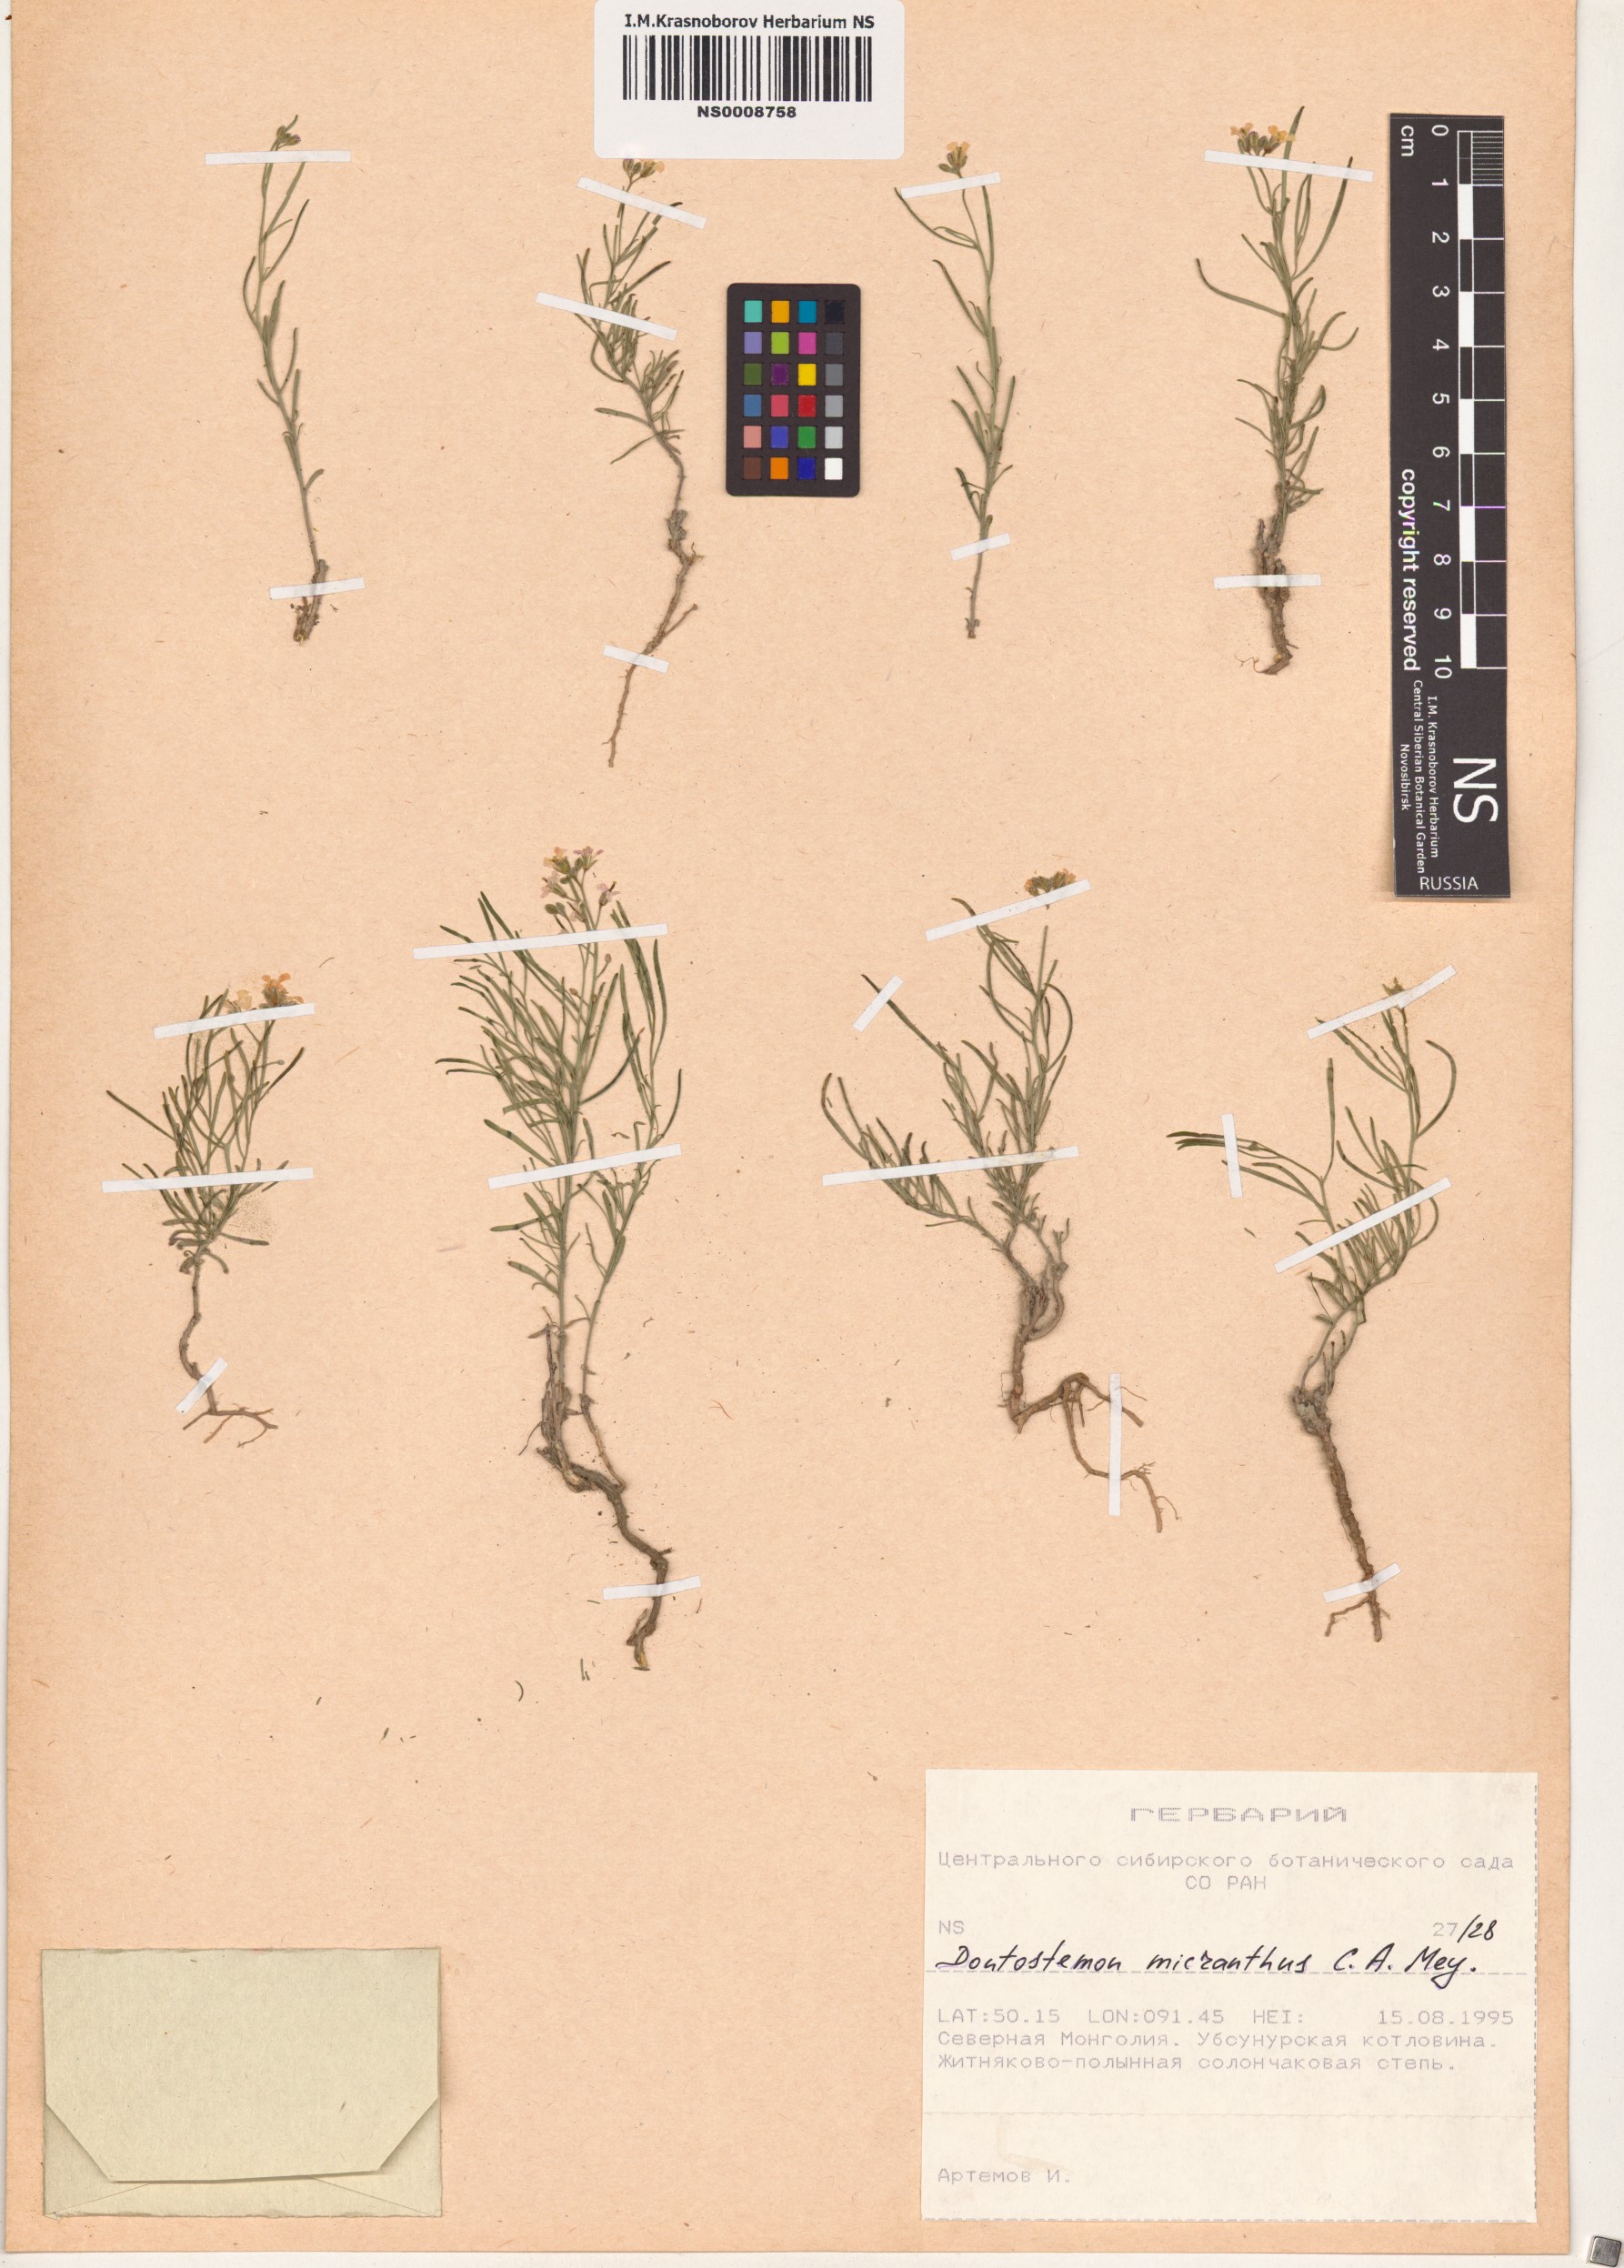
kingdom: Plantae
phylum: Tracheophyta
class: Magnoliopsida
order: Brassicales
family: Brassicaceae
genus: Dontostemon
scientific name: Dontostemon micranthus
